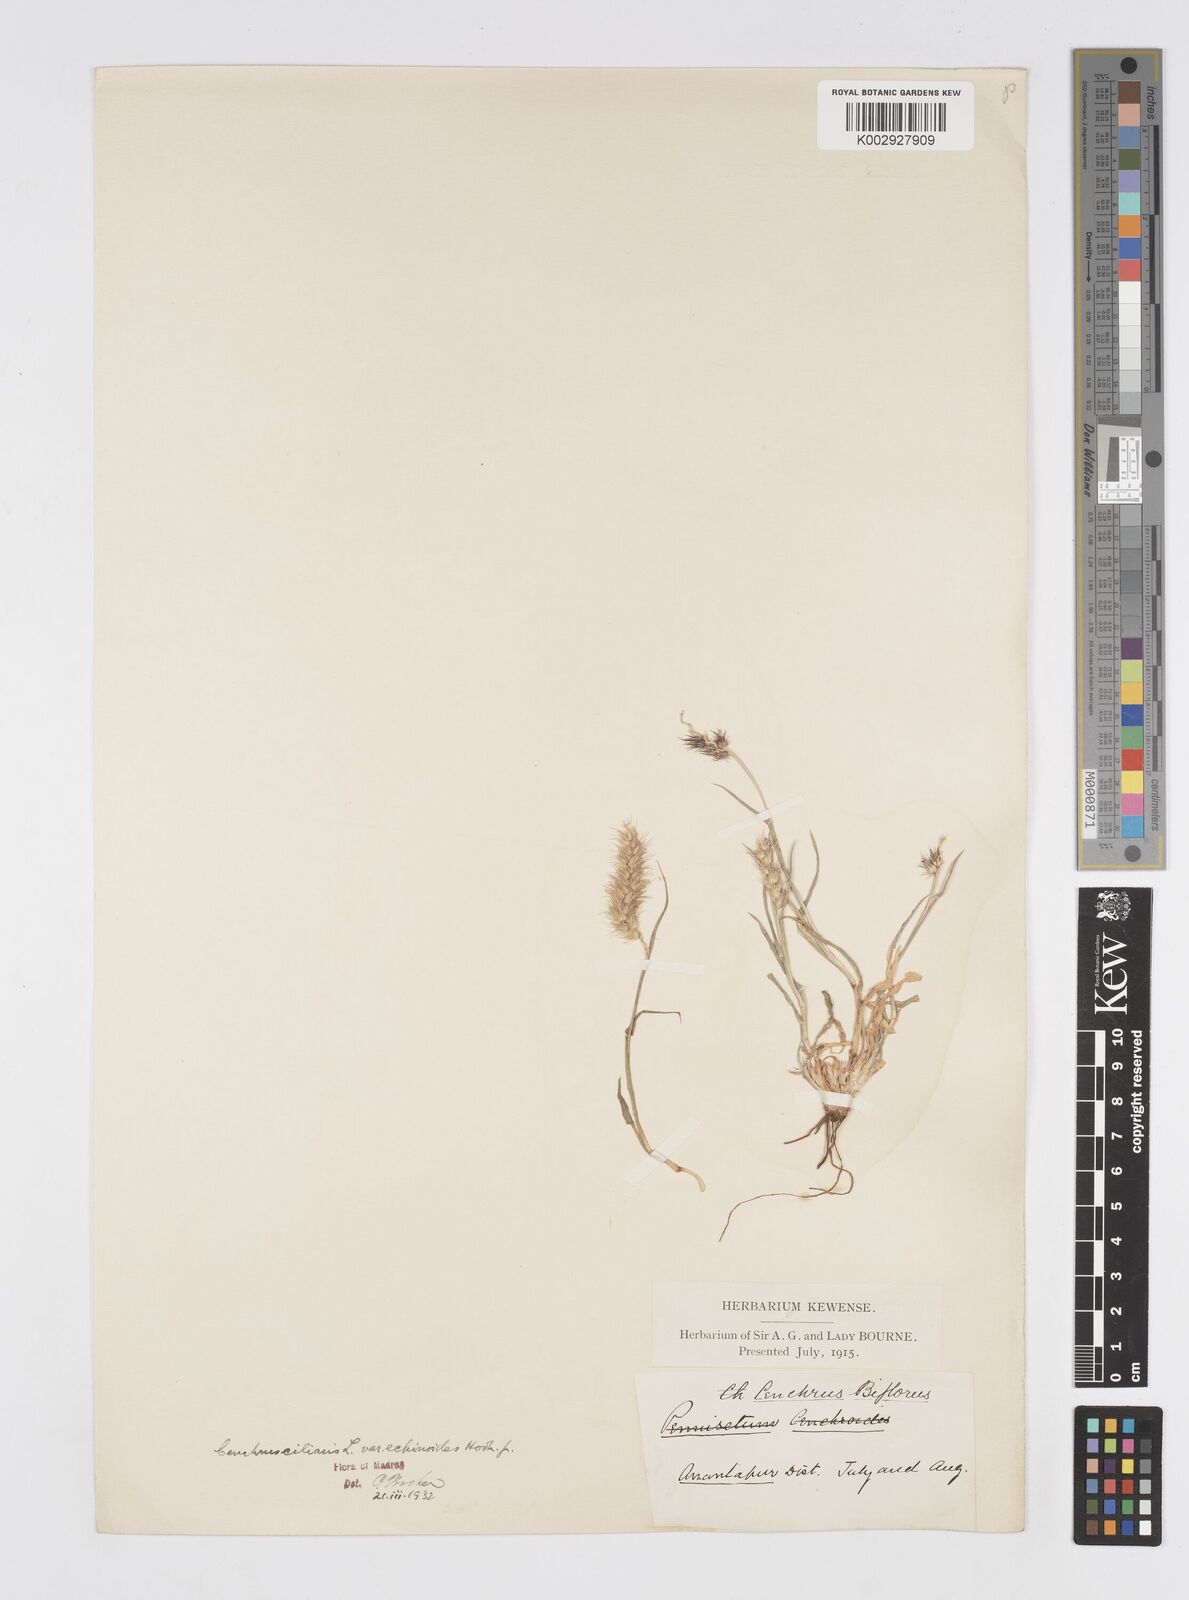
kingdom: Plantae
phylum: Tracheophyta
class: Liliopsida
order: Poales
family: Poaceae
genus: Cenchrus
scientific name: Cenchrus pennisetiformis
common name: Cloncurry
